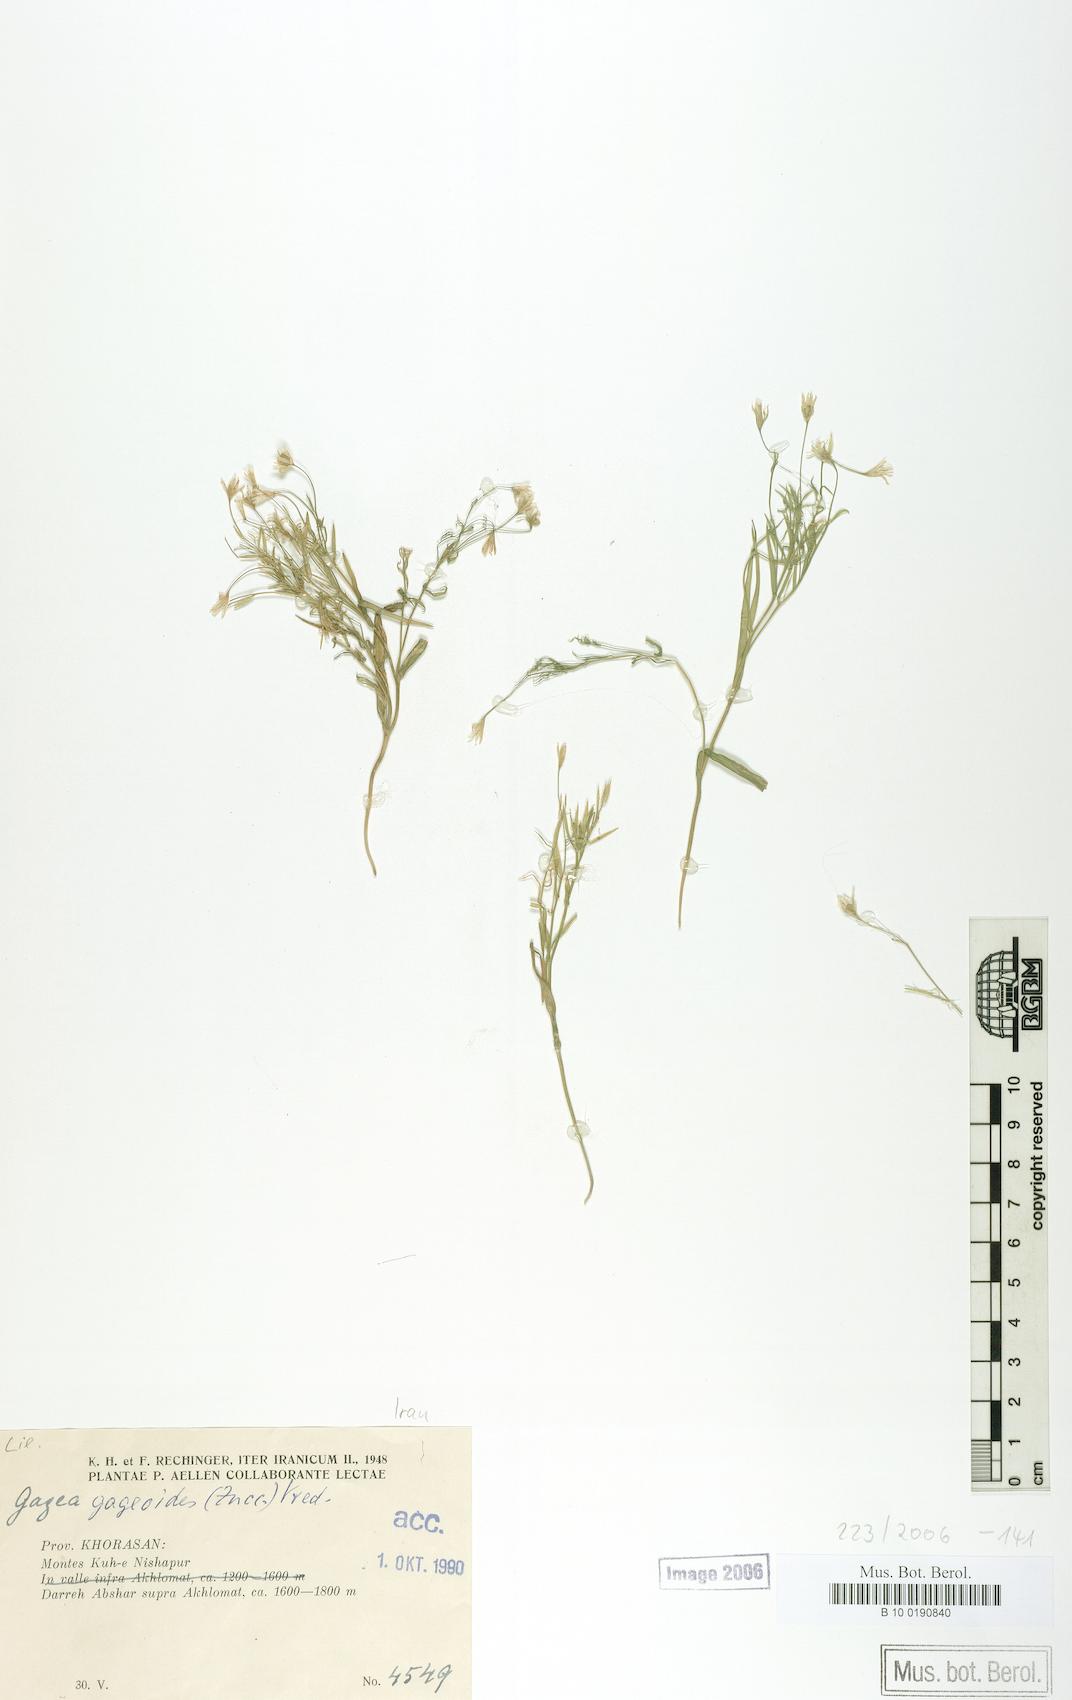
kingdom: Plantae
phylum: Tracheophyta
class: Liliopsida
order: Liliales
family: Liliaceae
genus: Gagea
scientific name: Gagea gageoides
